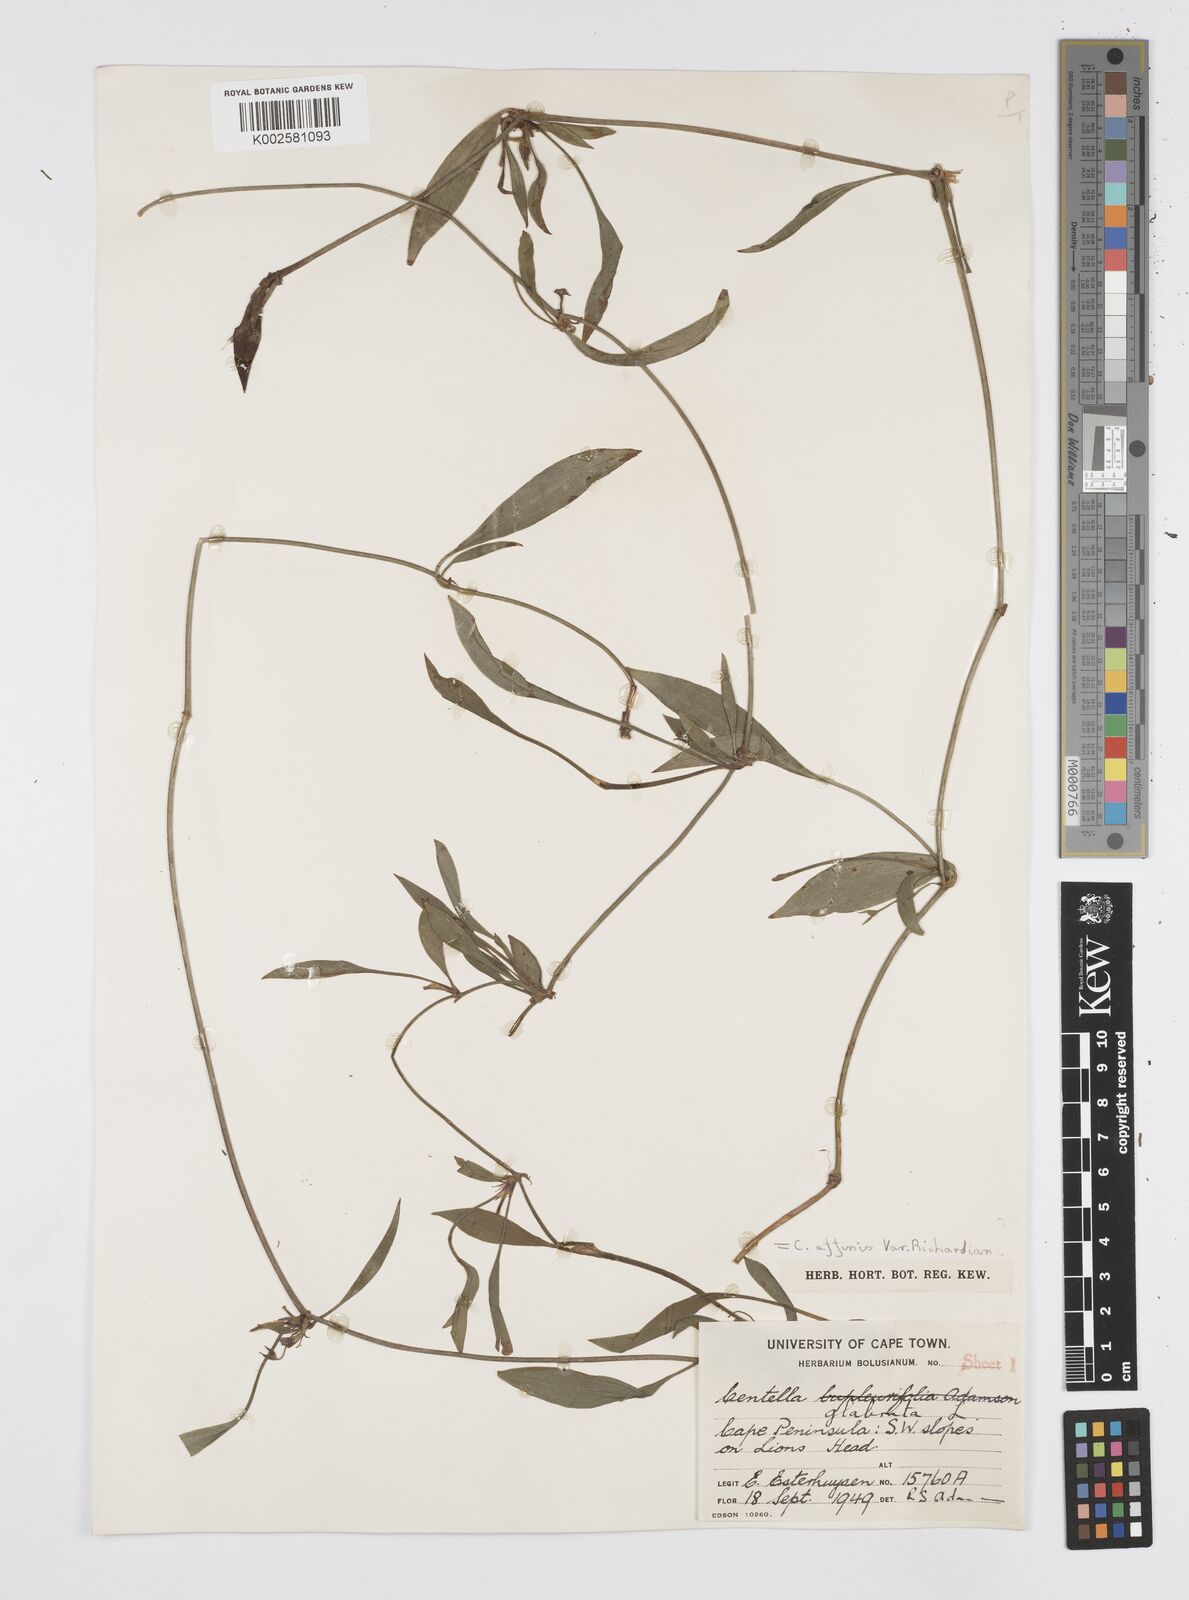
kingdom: Plantae
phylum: Tracheophyta
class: Magnoliopsida
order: Apiales
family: Apiaceae
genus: Centella
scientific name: Centella affinis
